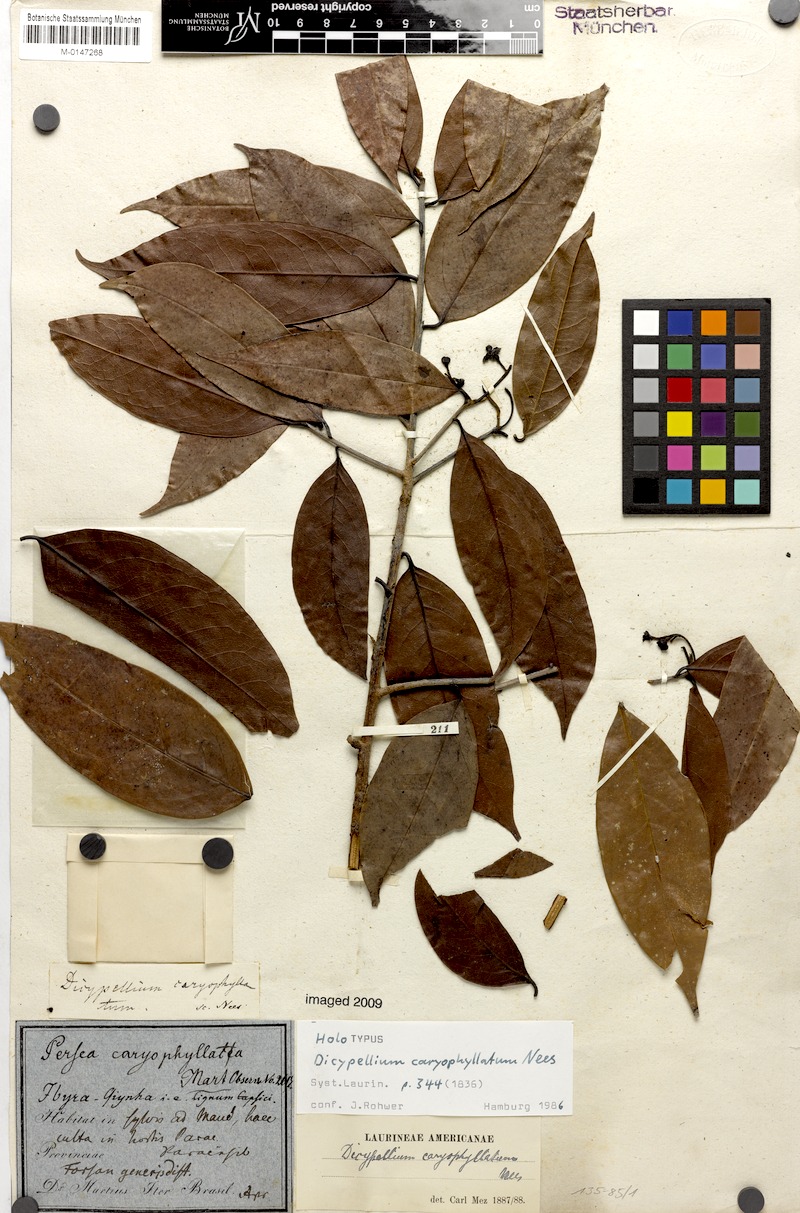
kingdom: Plantae
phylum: Tracheophyta
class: Magnoliopsida
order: Laurales
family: Lauraceae
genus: Dicypellium
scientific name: Dicypellium caryophyllaceum
